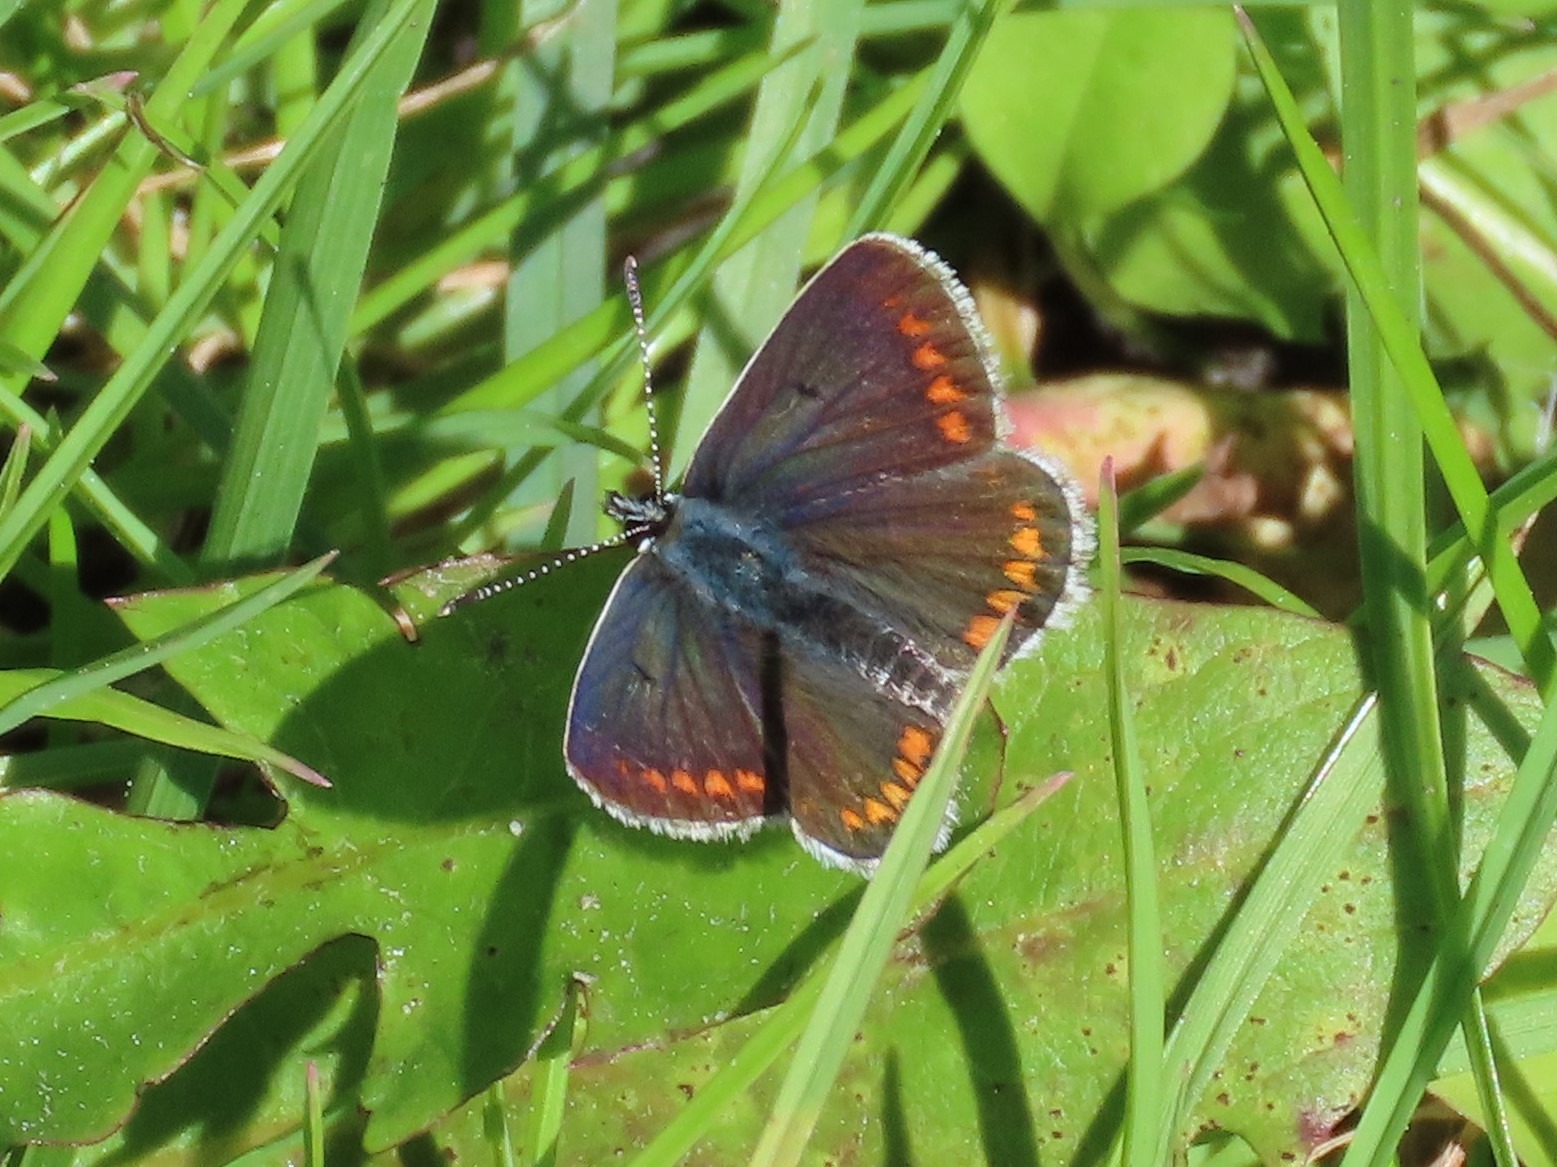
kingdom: Animalia
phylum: Arthropoda
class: Insecta
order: Lepidoptera
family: Lycaenidae
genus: Aricia
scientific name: Aricia agestis
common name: Rødplettet blåfugl
